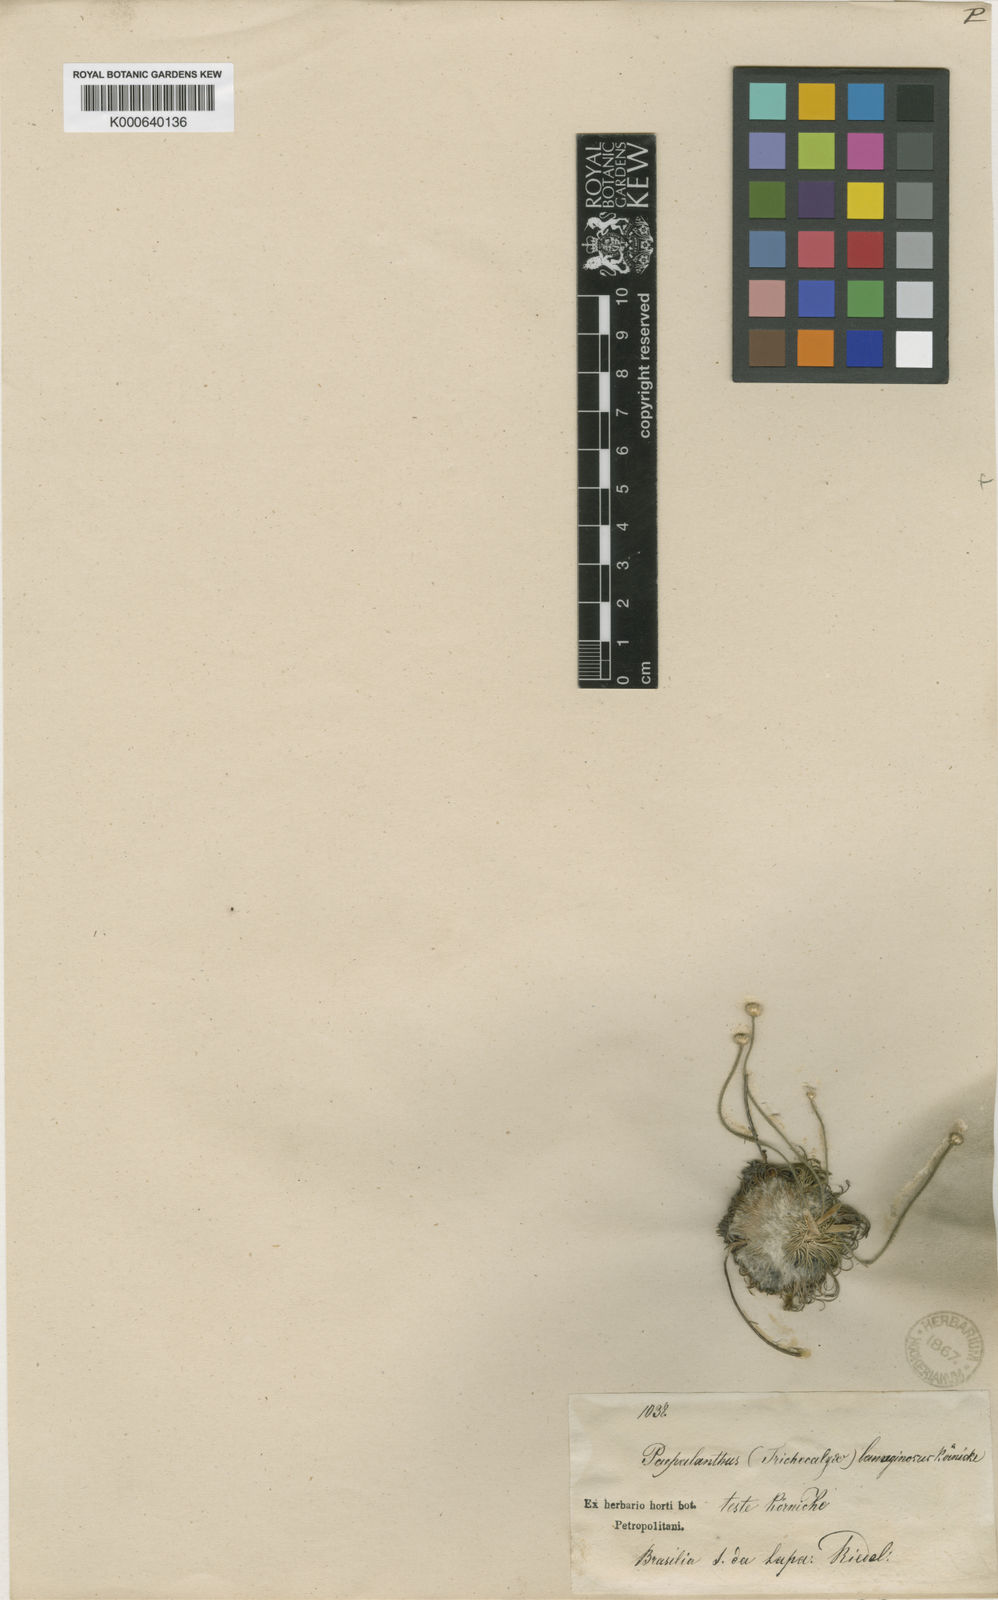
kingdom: Plantae
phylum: Tracheophyta
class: Liliopsida
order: Poales
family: Eriocaulaceae
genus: Leiothrix
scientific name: Leiothrix curvifolia
